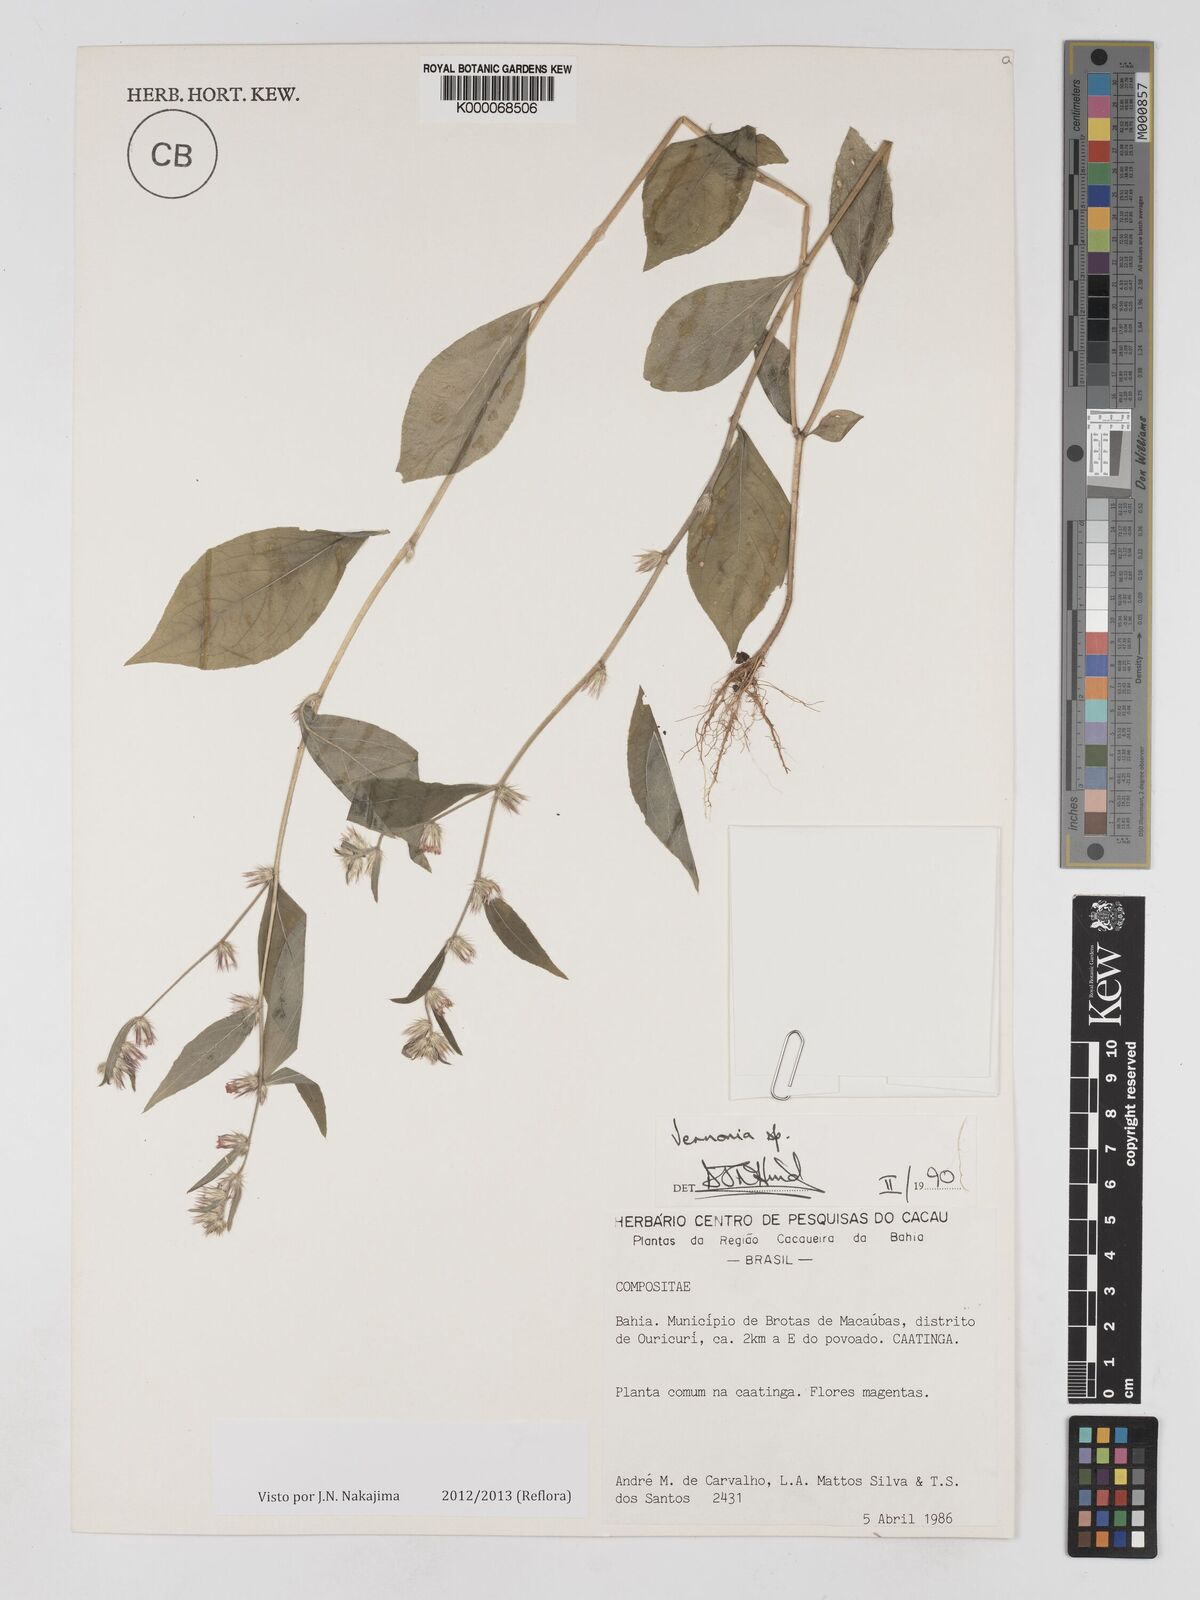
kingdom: Plantae
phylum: Tracheophyta
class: Magnoliopsida
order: Asterales
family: Asteraceae
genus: Lepidaploa
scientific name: Lepidaploa remotiflora
